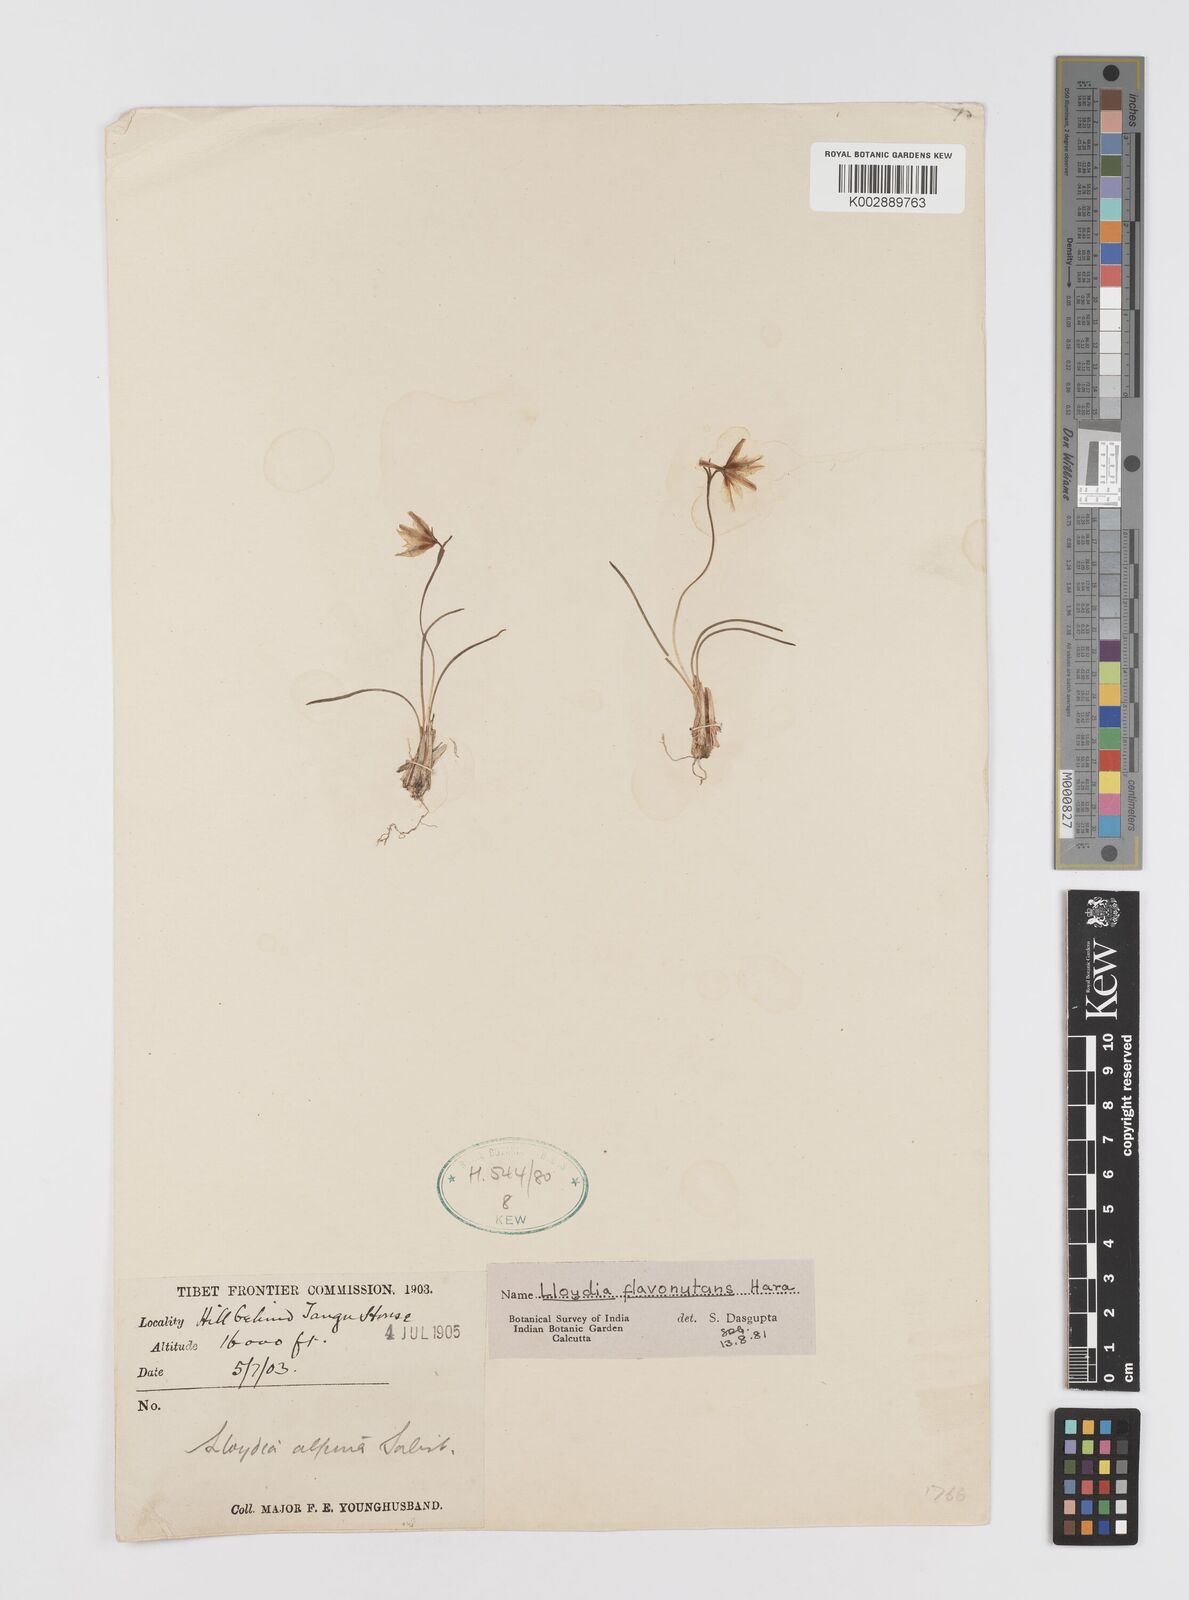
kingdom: Plantae
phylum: Tracheophyta
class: Liliopsida
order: Liliales
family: Liliaceae
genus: Gagea
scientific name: Gagea flavonutans
